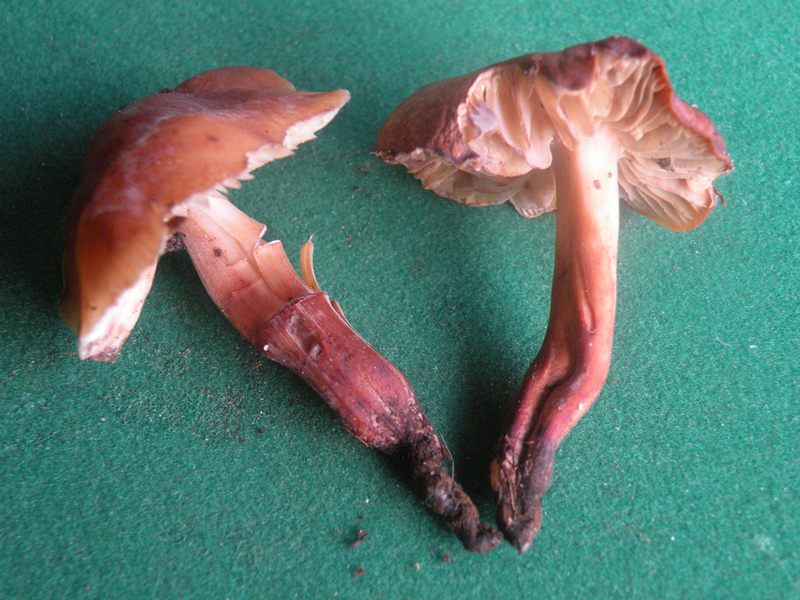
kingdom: Fungi
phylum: Basidiomycota
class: Agaricomycetes
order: Agaricales
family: Omphalotaceae
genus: Gymnopus
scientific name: Gymnopus fusipes
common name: tenstokket fladhat
